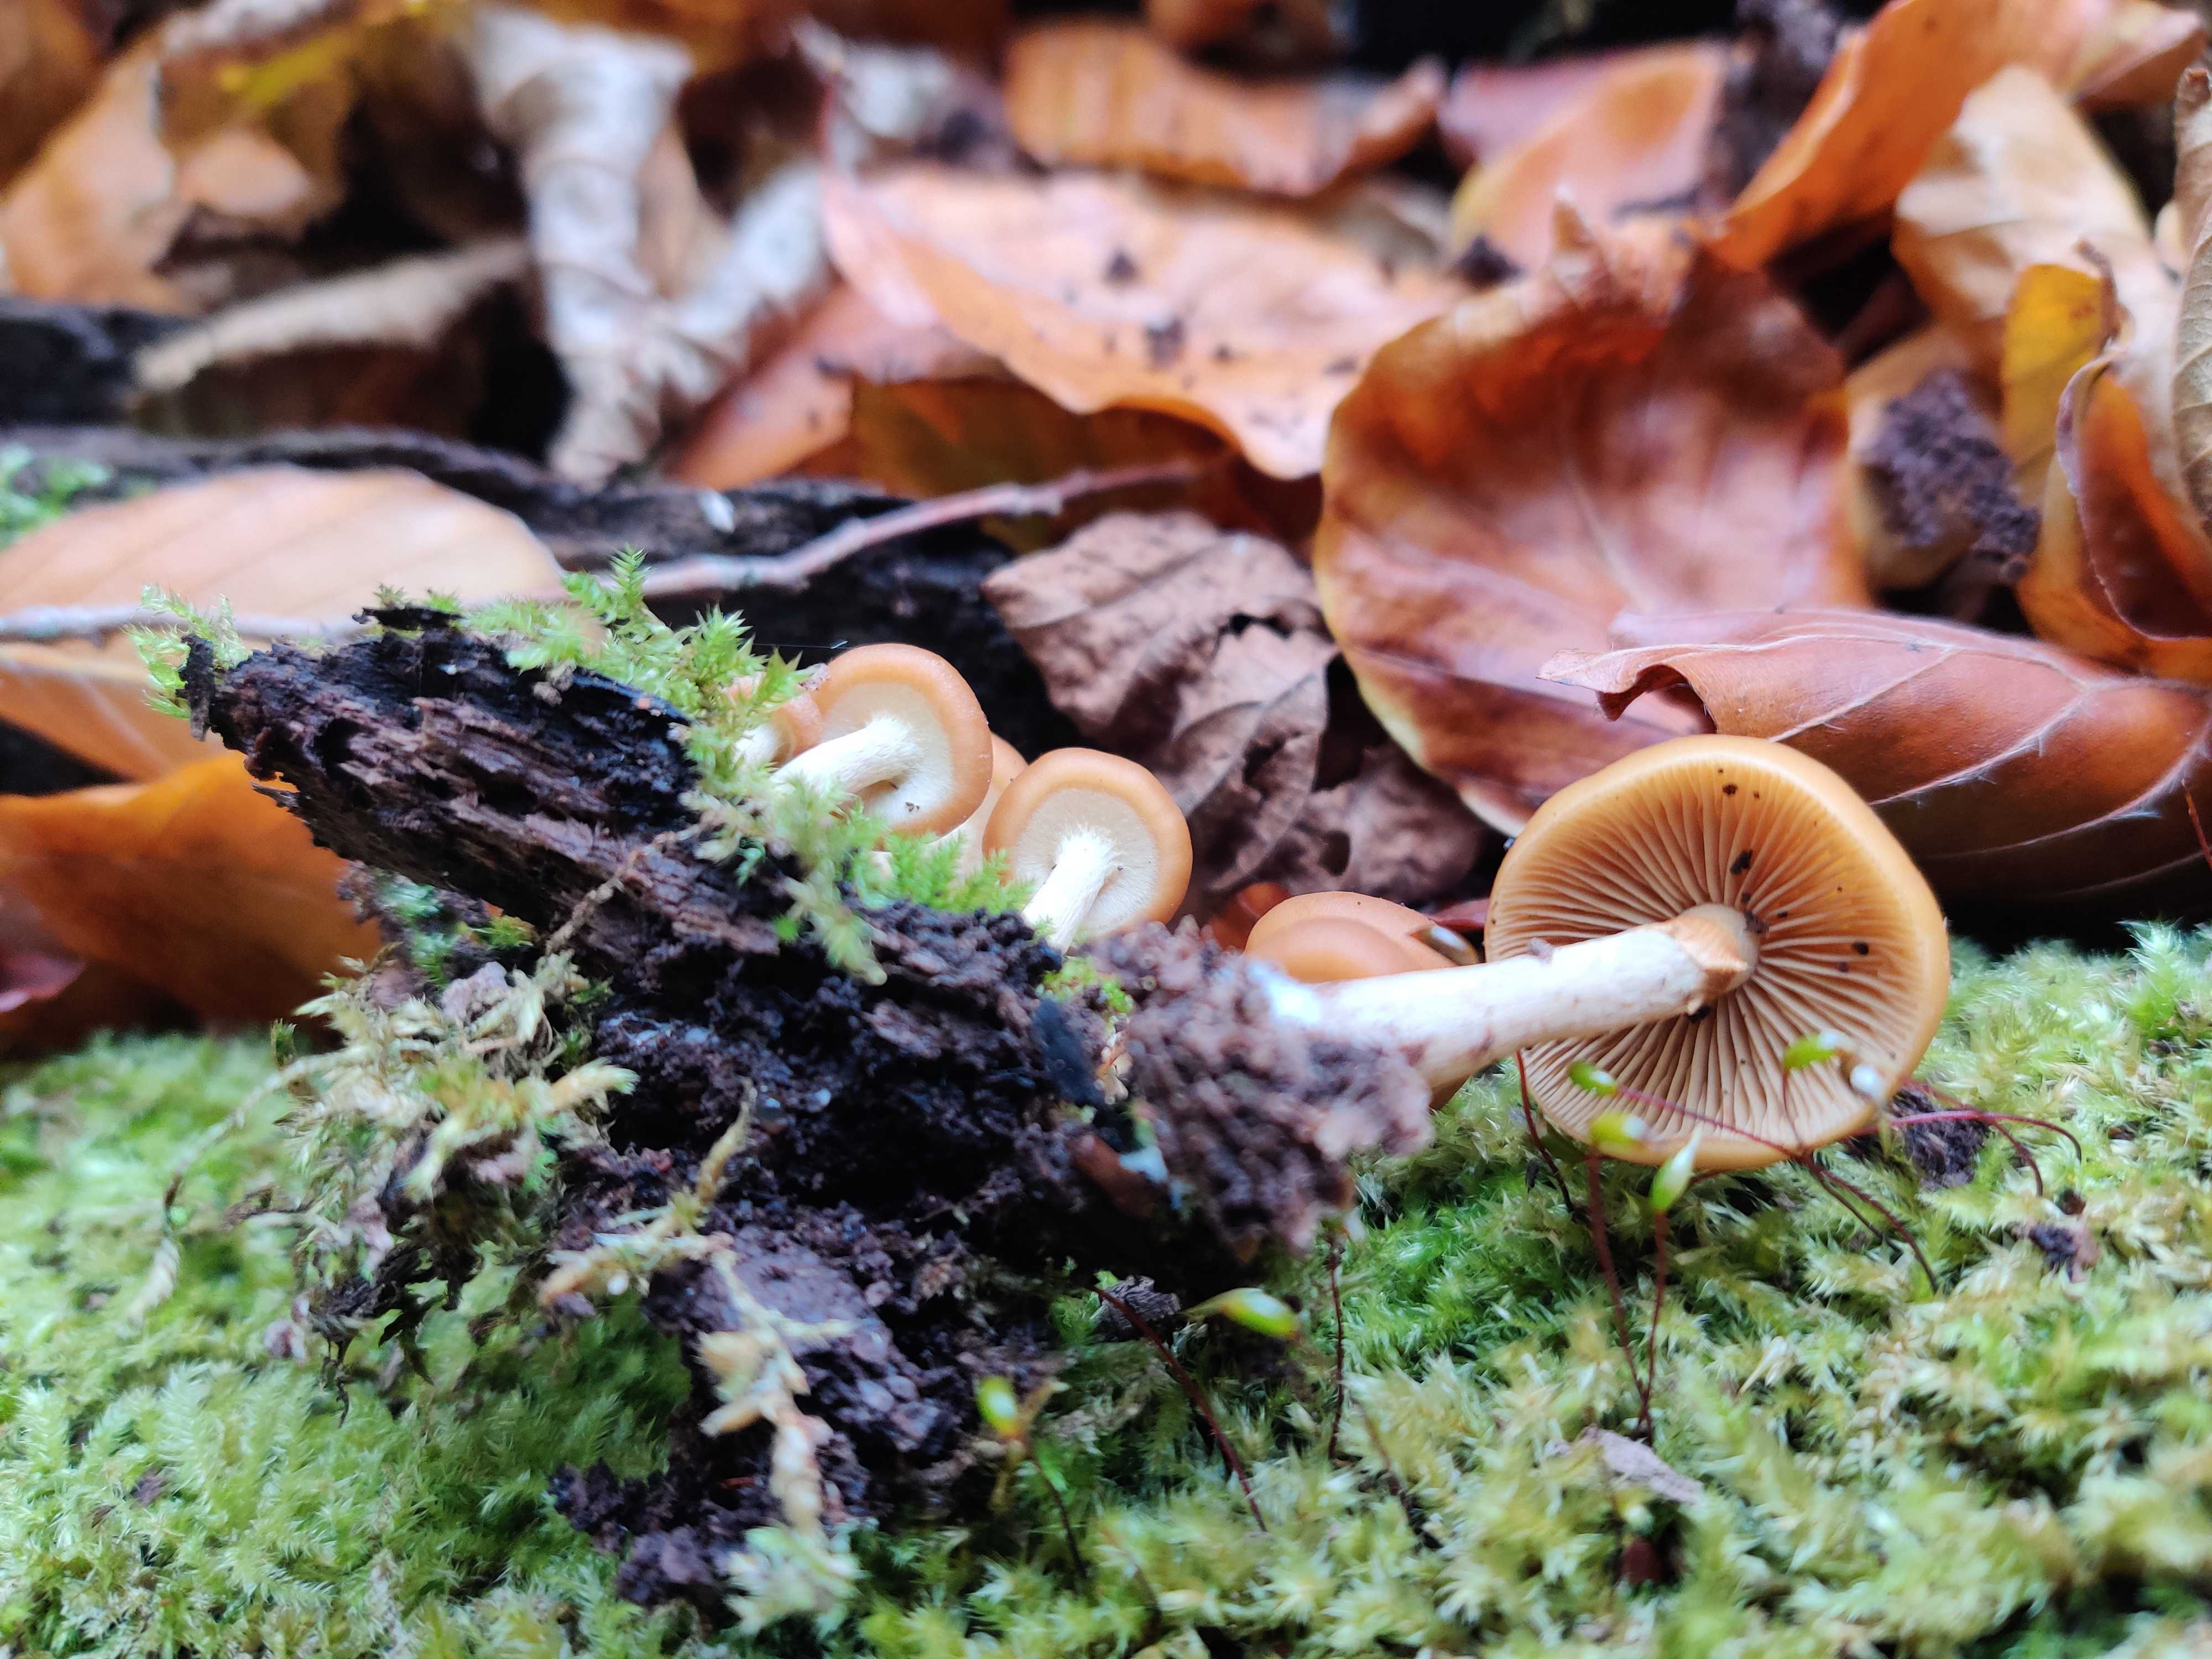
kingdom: Fungi
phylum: Basidiomycota
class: Agaricomycetes
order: Agaricales
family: Hymenogastraceae
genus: Galerina
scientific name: Galerina marginata
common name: randbæltet hjelmhat
